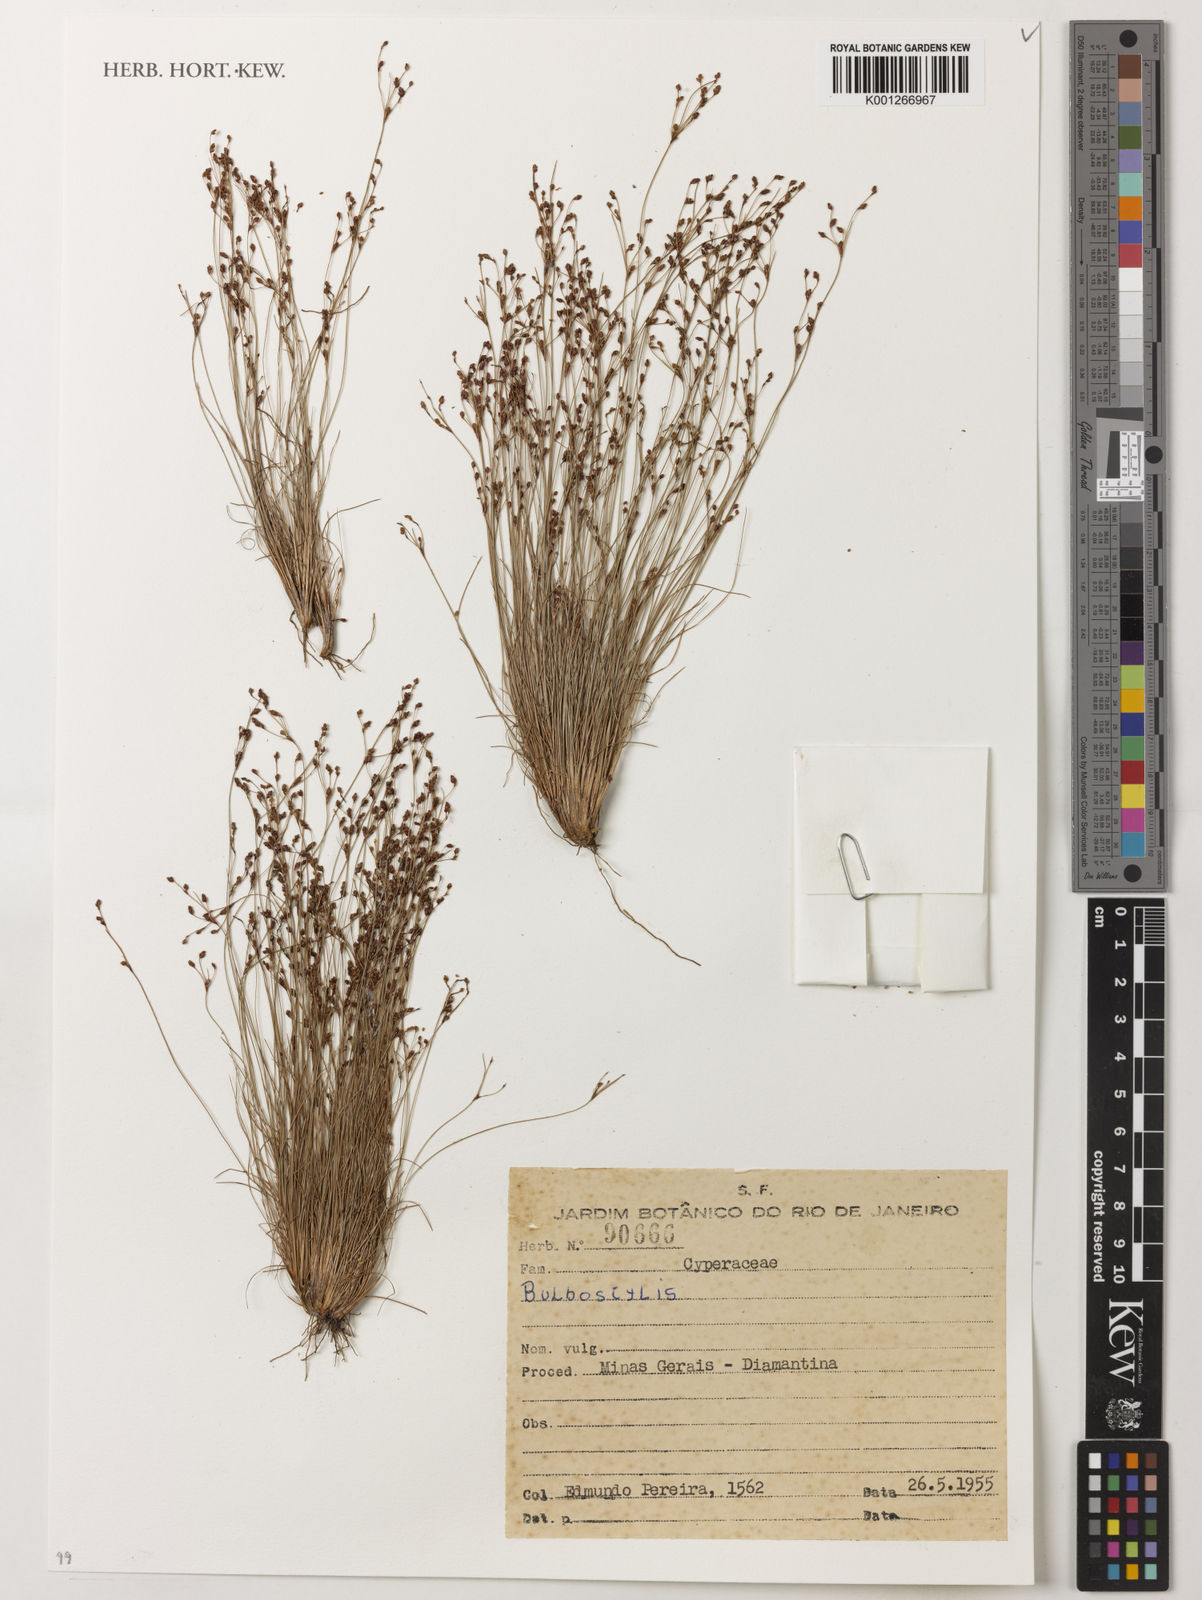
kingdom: Plantae
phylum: Tracheophyta
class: Liliopsida
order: Poales
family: Cyperaceae
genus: Bulbostylis
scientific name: Bulbostylis
